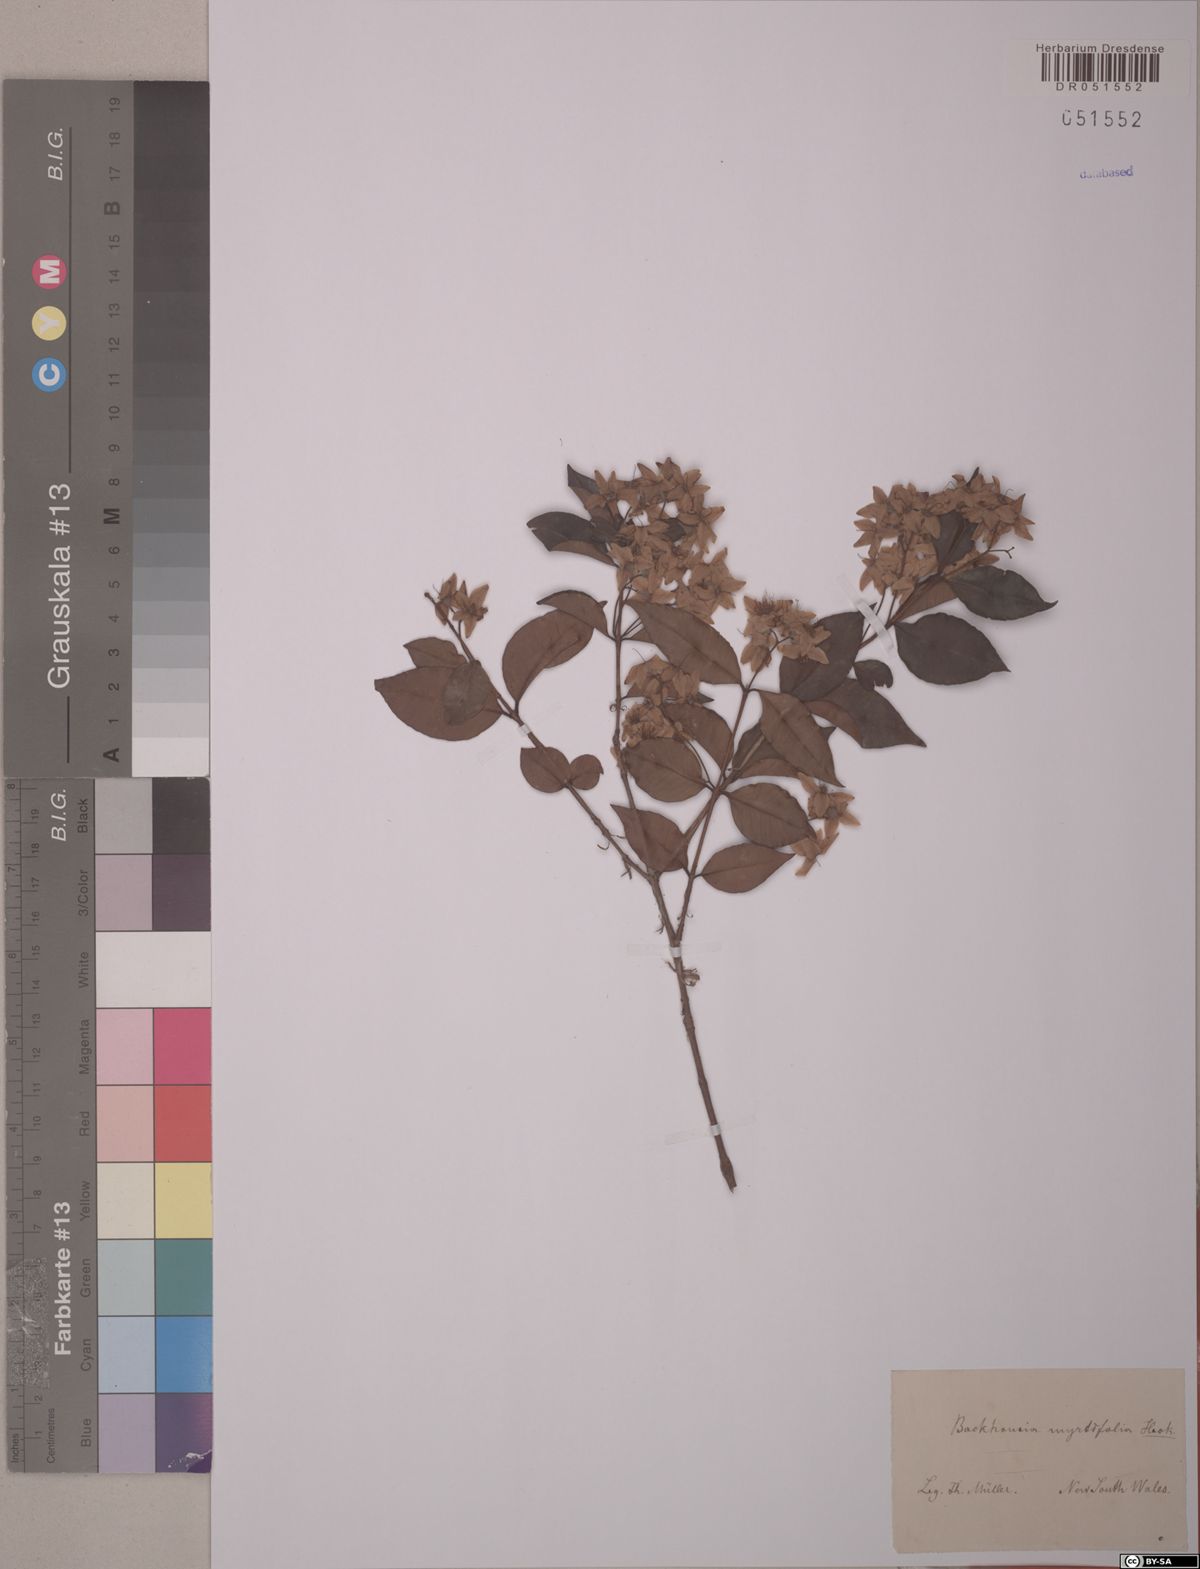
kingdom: Plantae
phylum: Tracheophyta
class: Magnoliopsida
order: Myrtales
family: Myrtaceae
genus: Backhousia
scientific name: Backhousia myrtifolia
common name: Carrol
